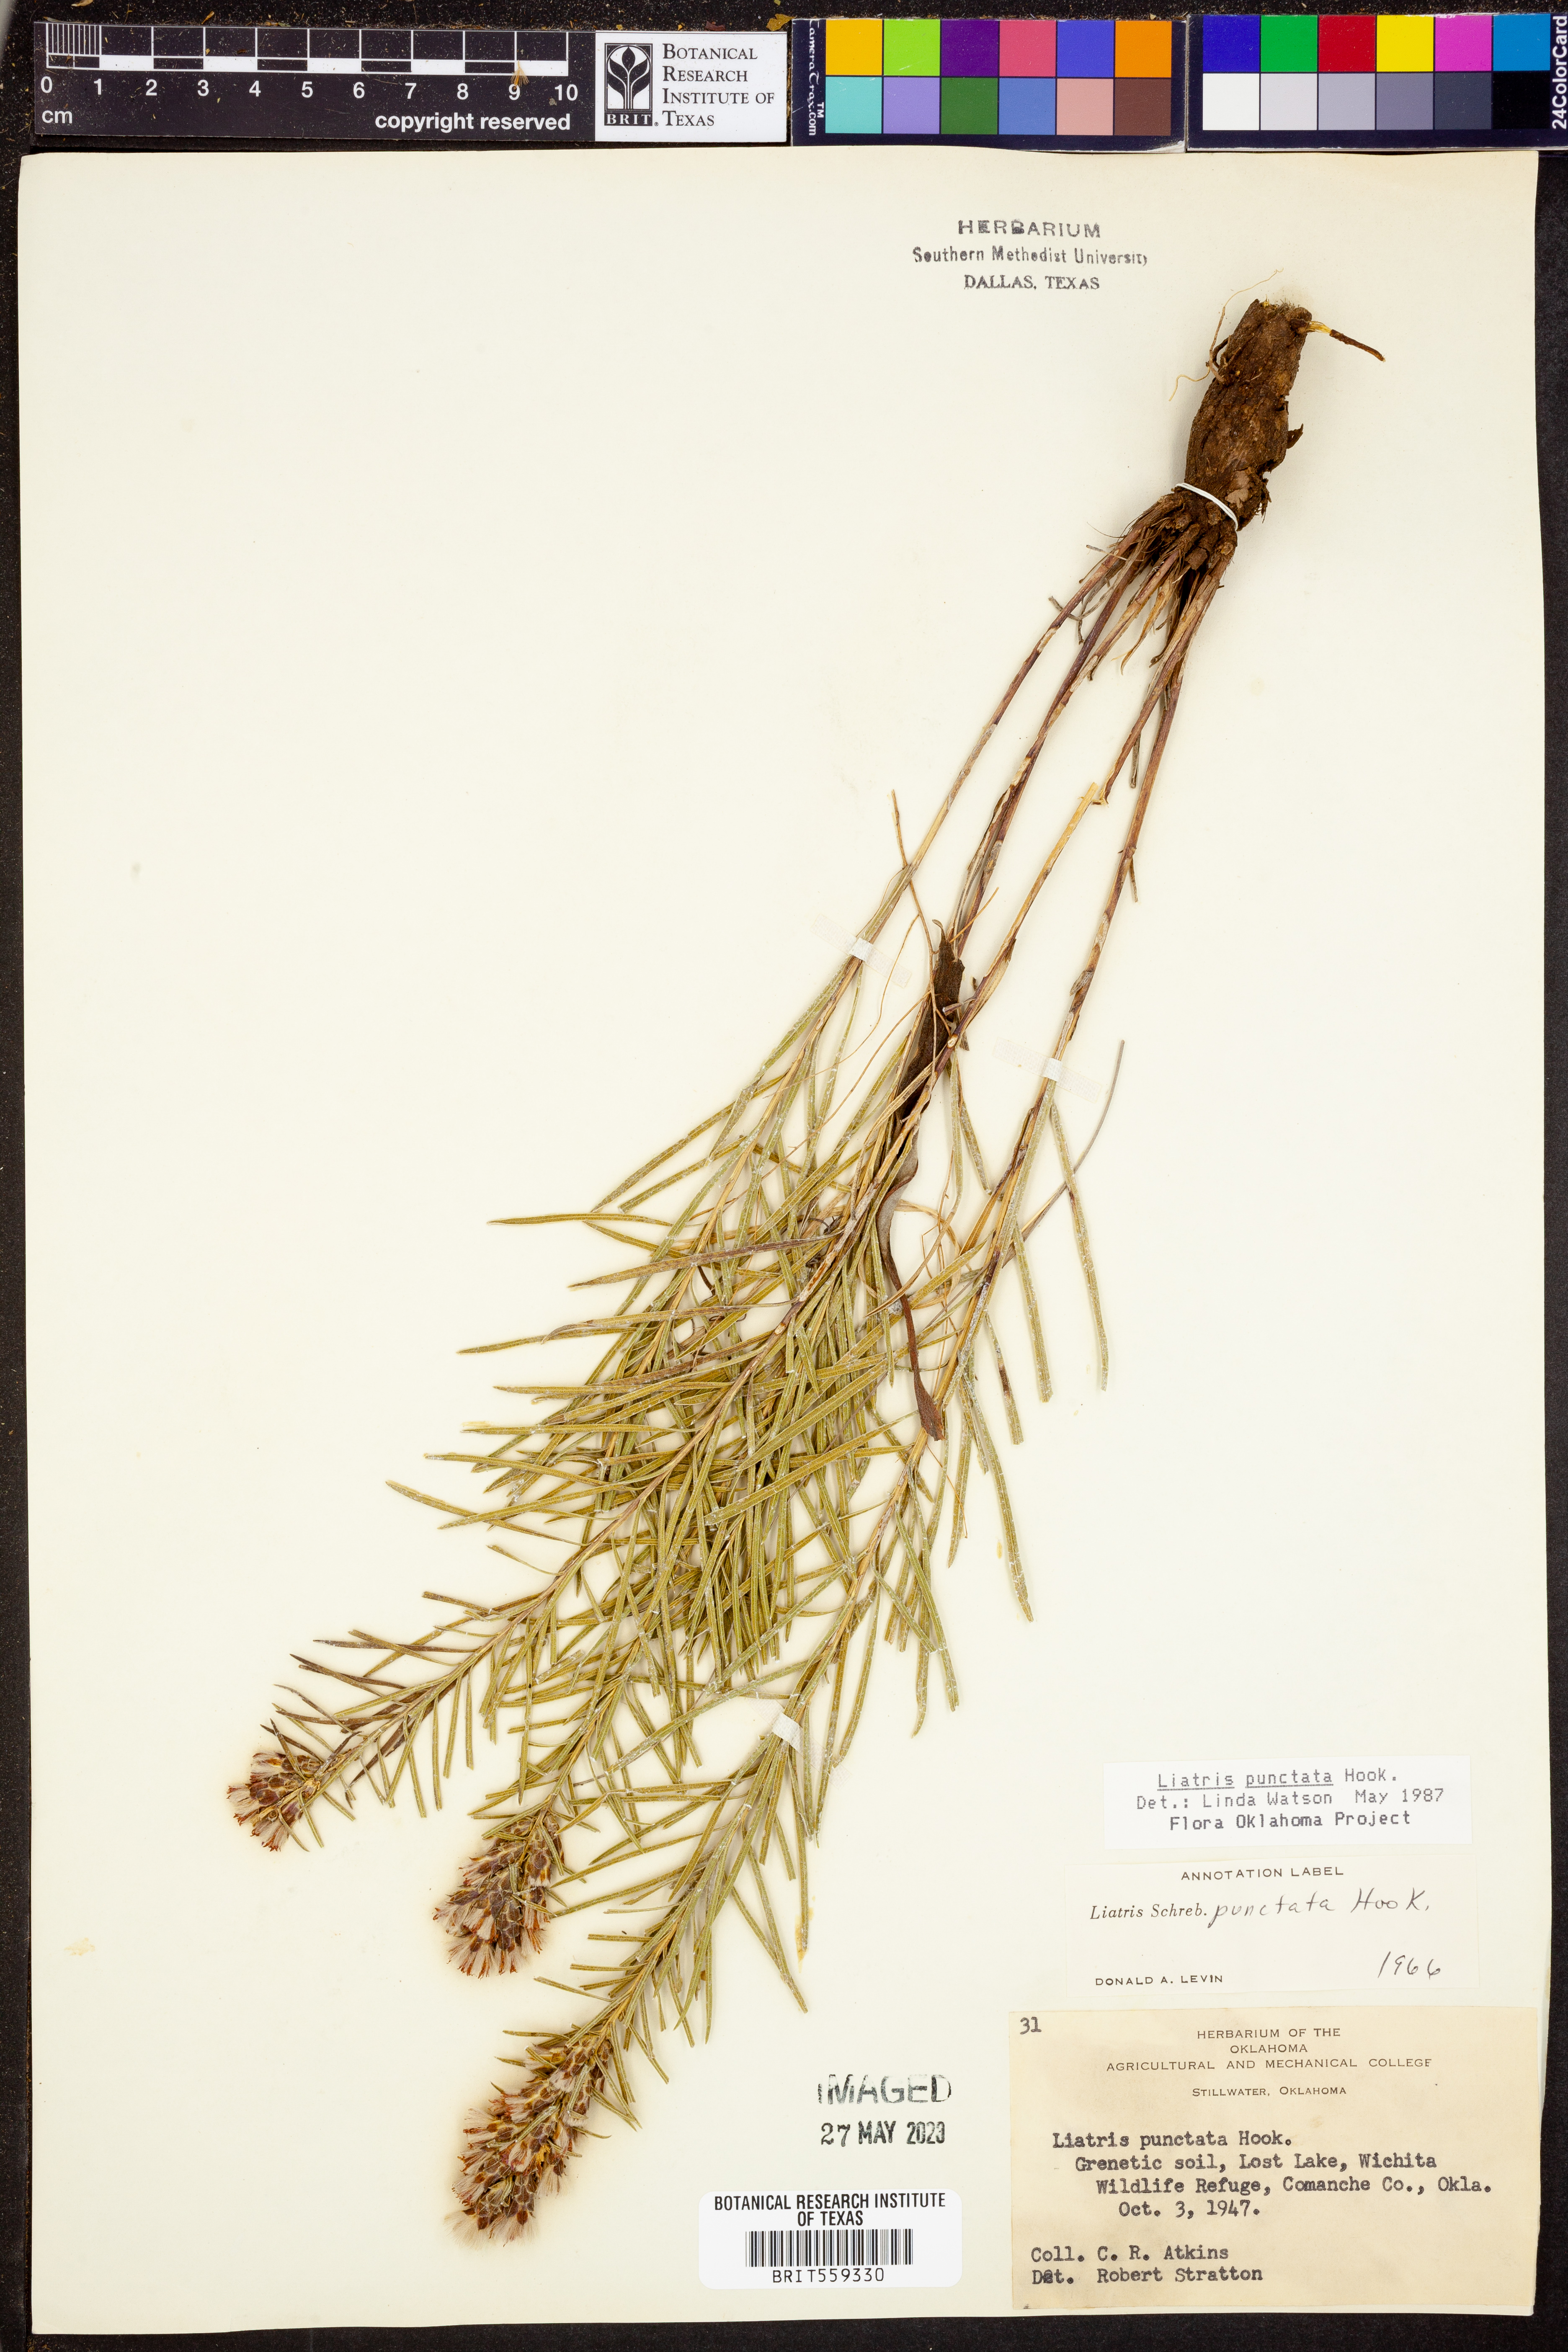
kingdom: Plantae
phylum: Tracheophyta
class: Magnoliopsida
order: Asterales
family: Asteraceae
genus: Liatris
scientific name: Liatris punctata
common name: Dotted gayfeather
